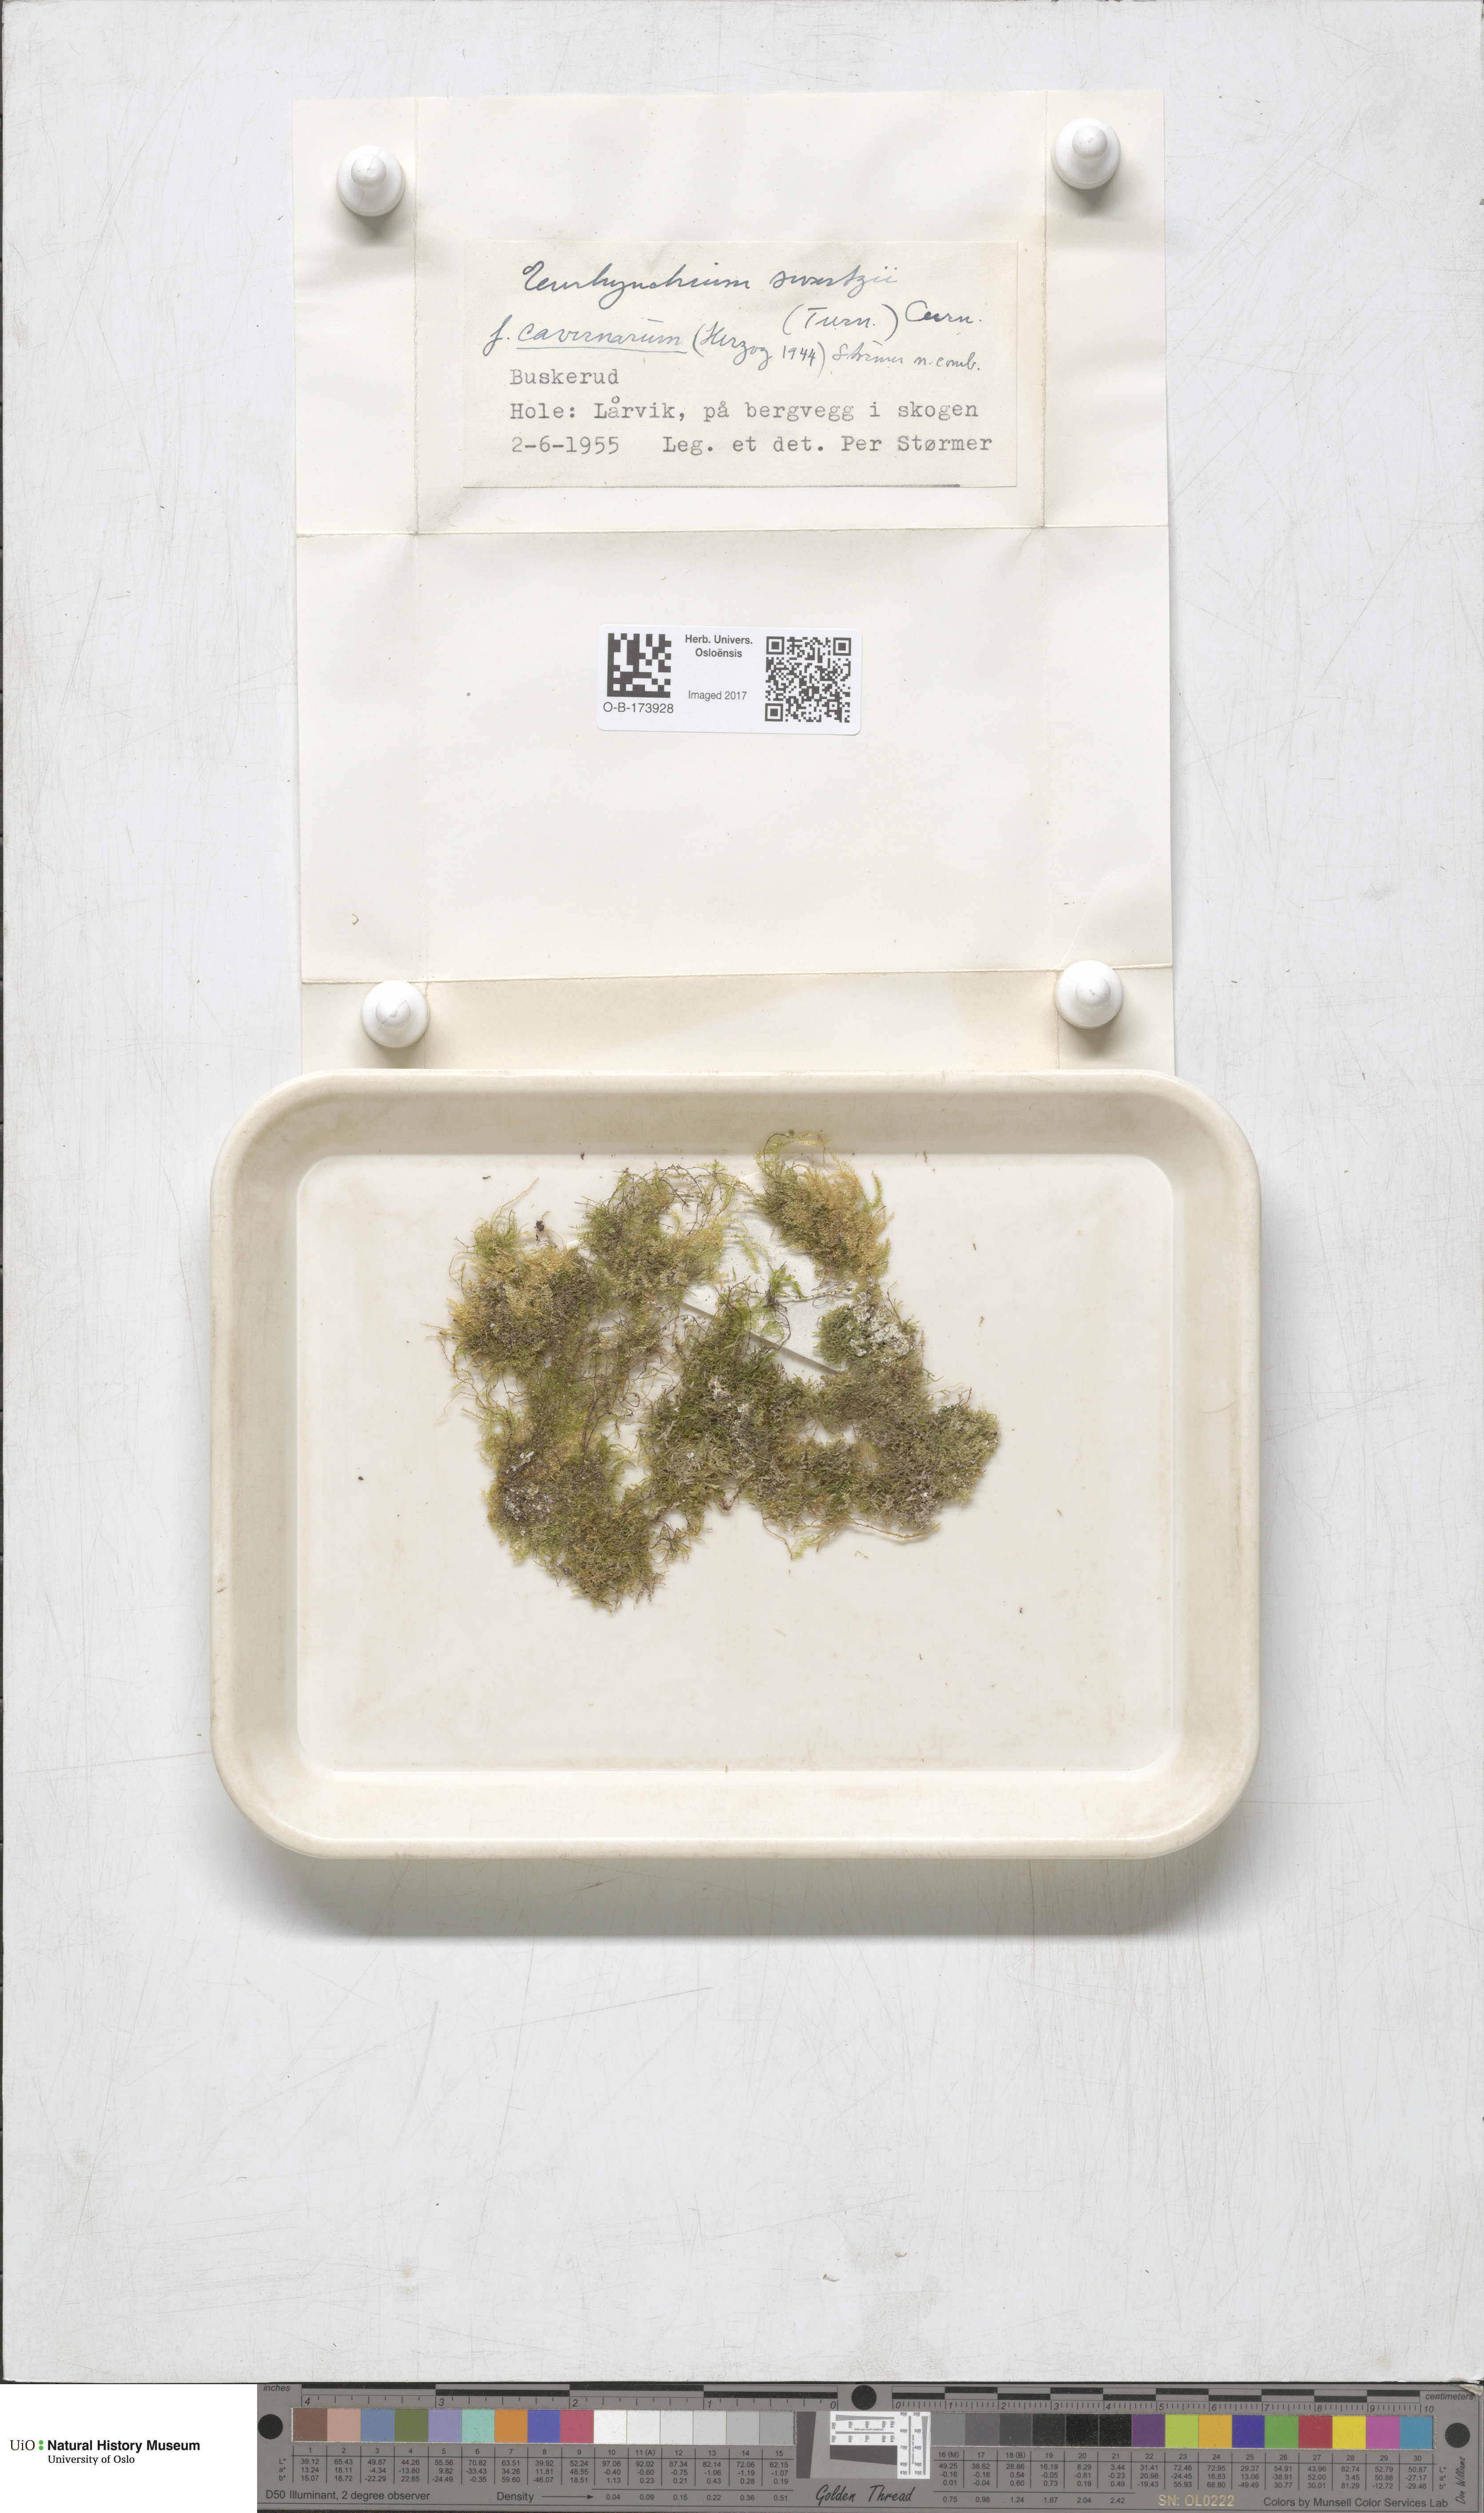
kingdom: Plantae
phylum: Bryophyta
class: Bryopsida
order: Hypnales
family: Brachytheciaceae
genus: Oxyrrhynchium
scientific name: Oxyrrhynchium hians
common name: Spreading beaked moss
